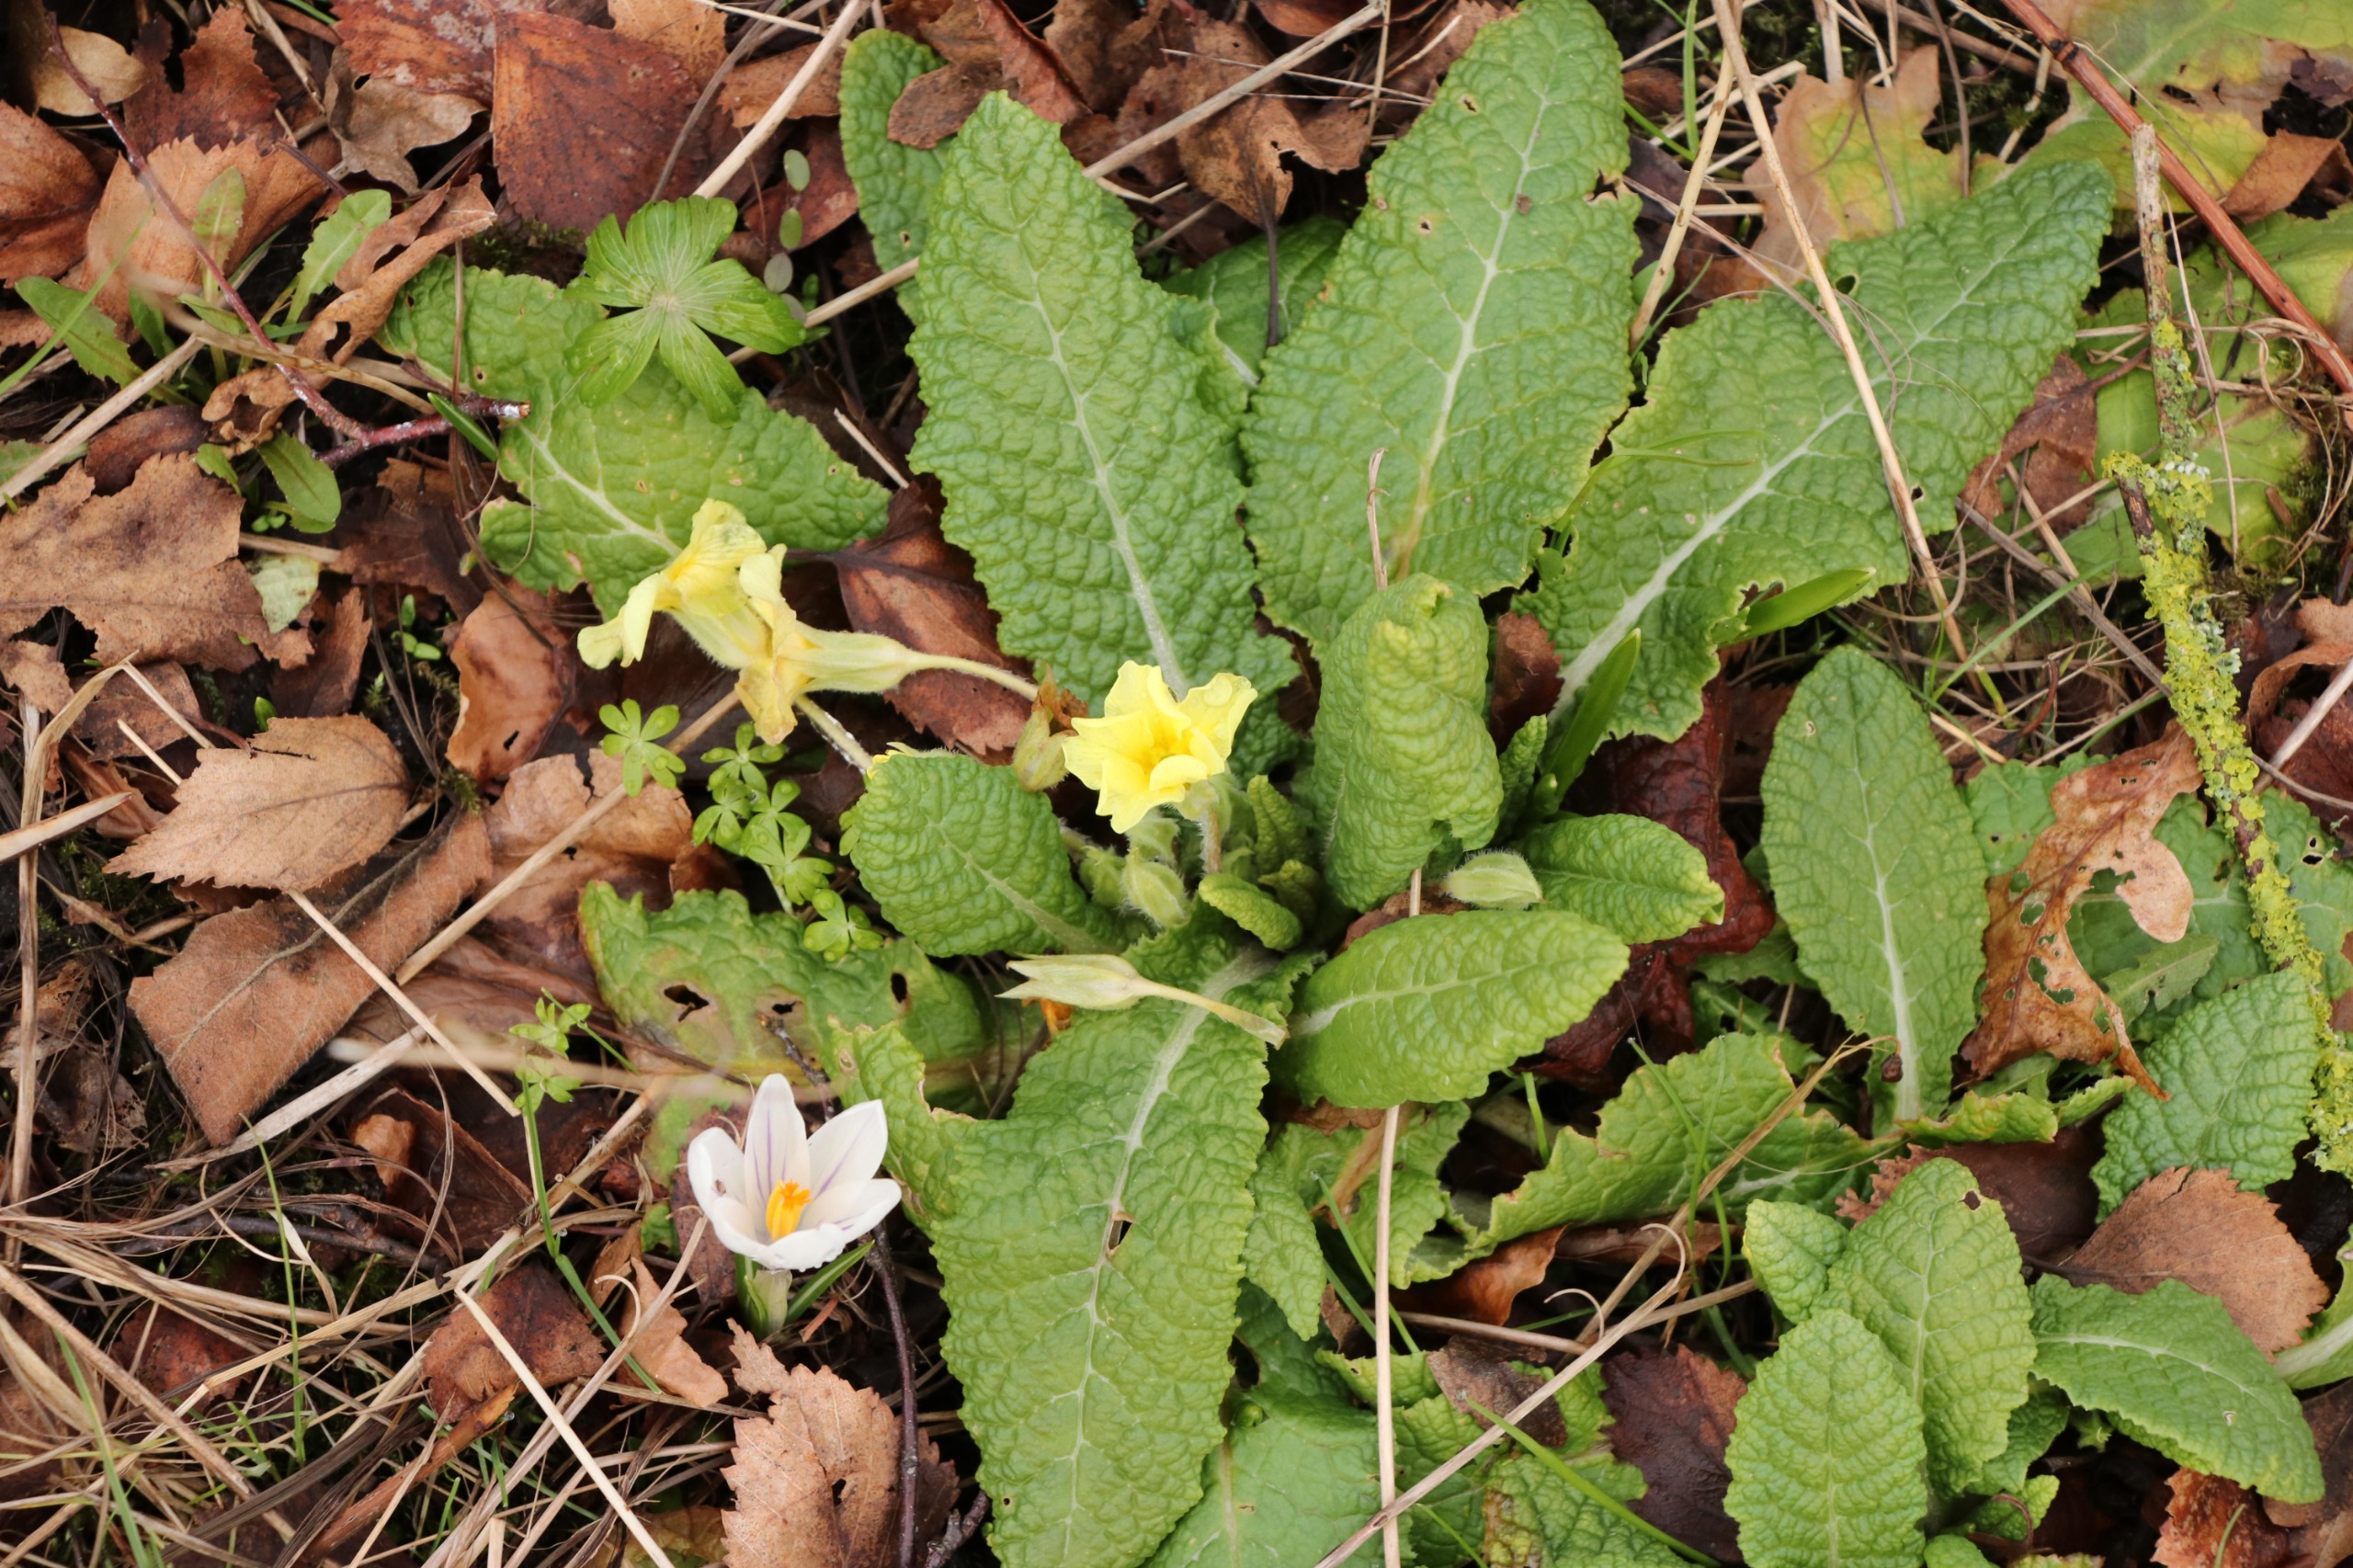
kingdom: Plantae
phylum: Tracheophyta
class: Magnoliopsida
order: Ericales
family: Primulaceae
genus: Primula
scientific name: Primula elatior
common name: Fladkravet kodriver
